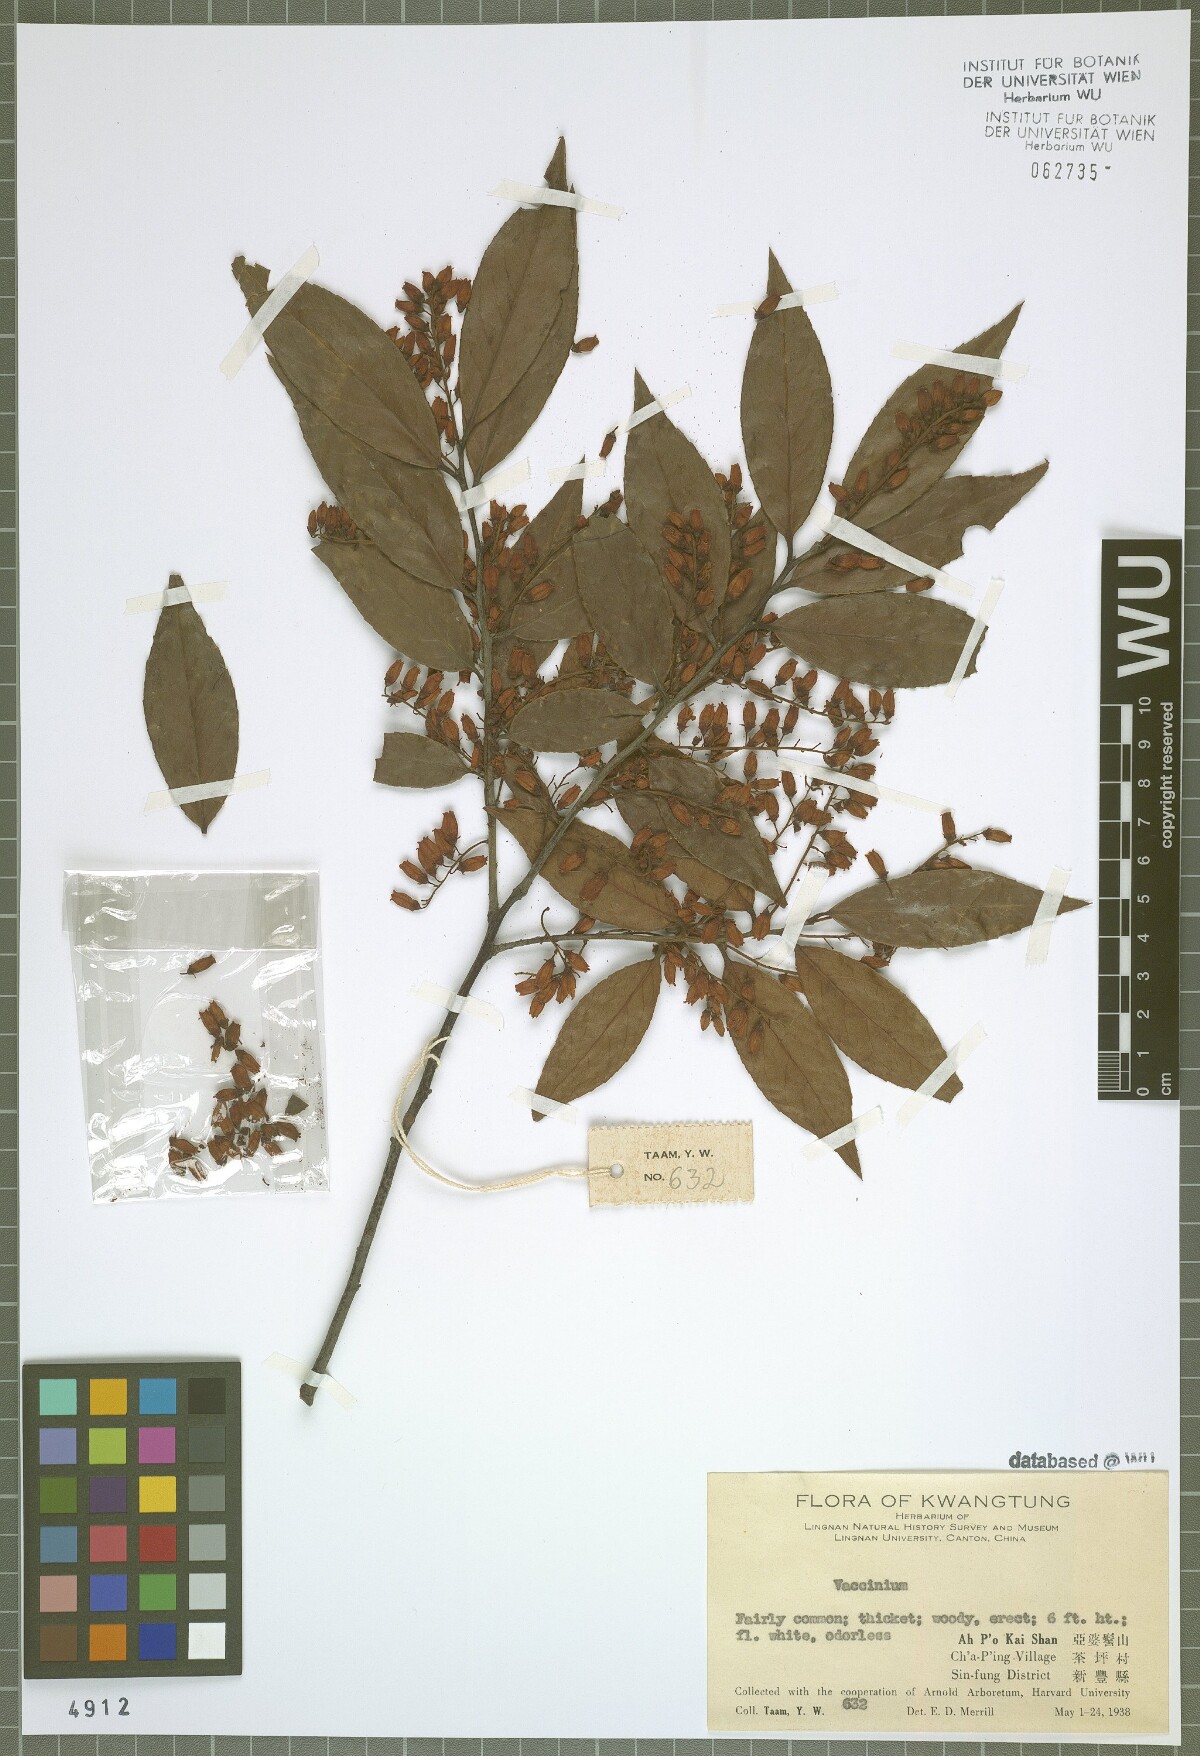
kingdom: Plantae
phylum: Tracheophyta
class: Magnoliopsida
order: Ericales
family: Ericaceae
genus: Vaccinium
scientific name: Vaccinium
